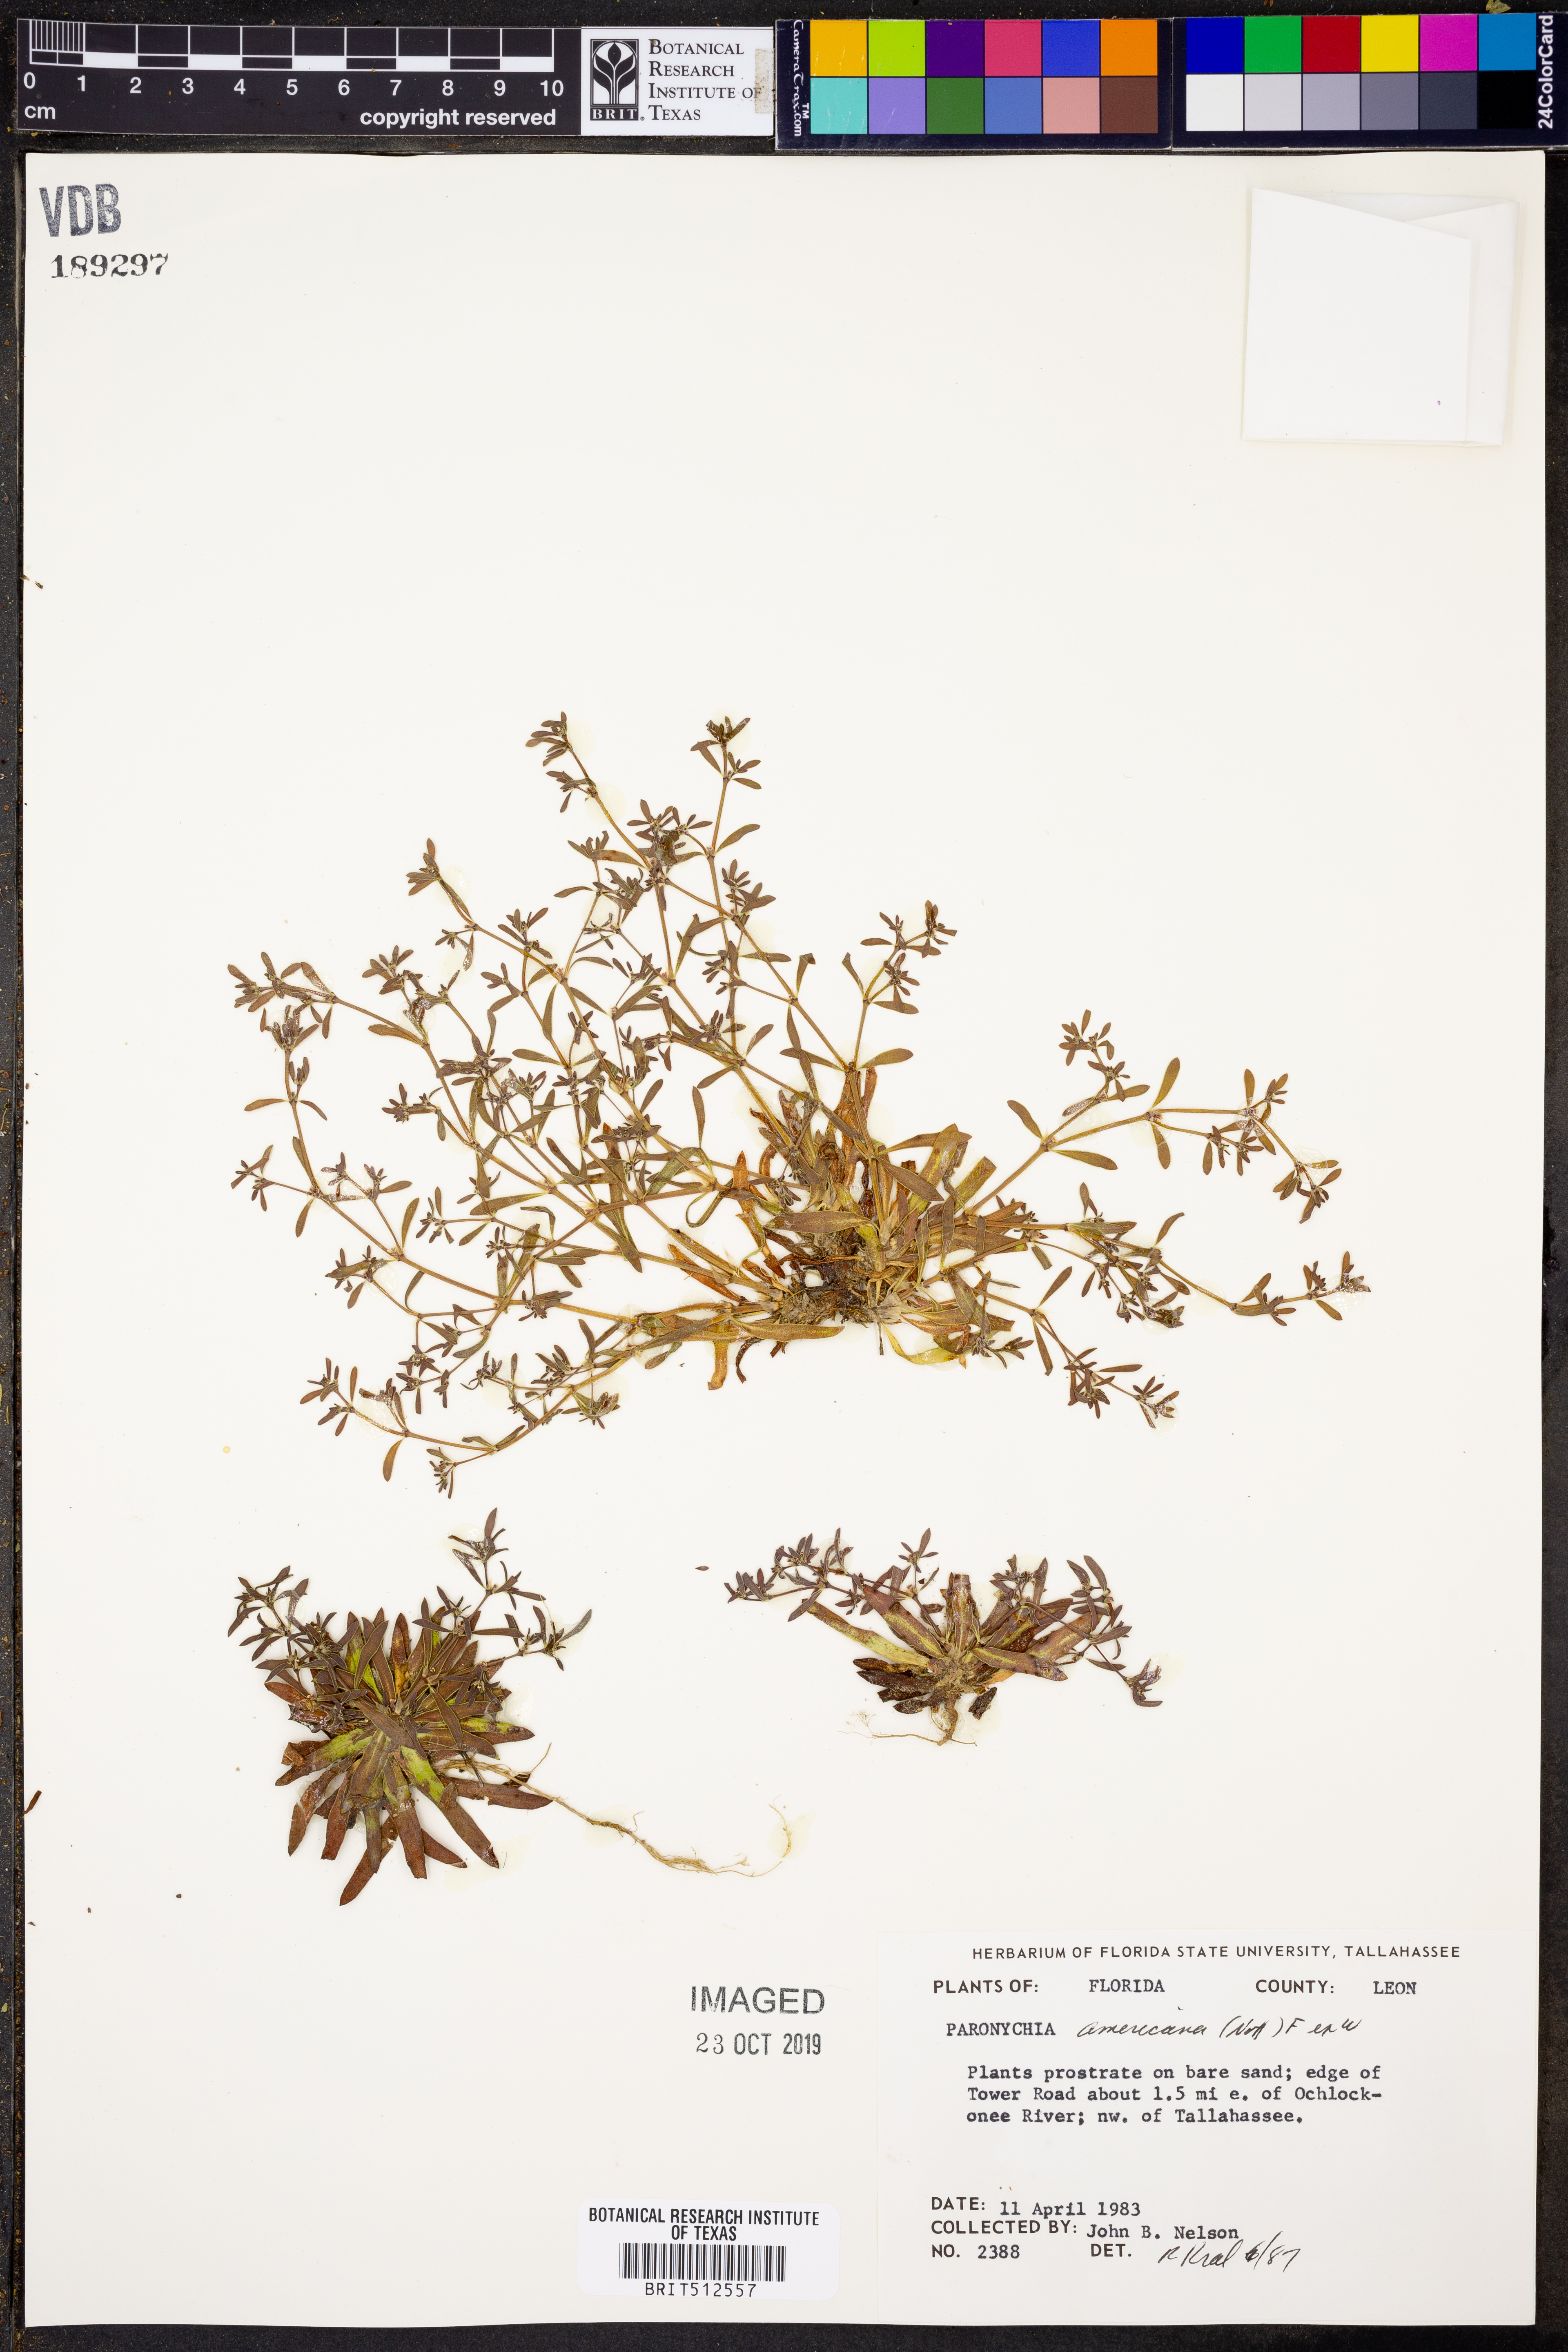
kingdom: Plantae
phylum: Tracheophyta
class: Magnoliopsida
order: Caryophyllales
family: Caryophyllaceae
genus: Paronychia
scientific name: Paronychia americana
